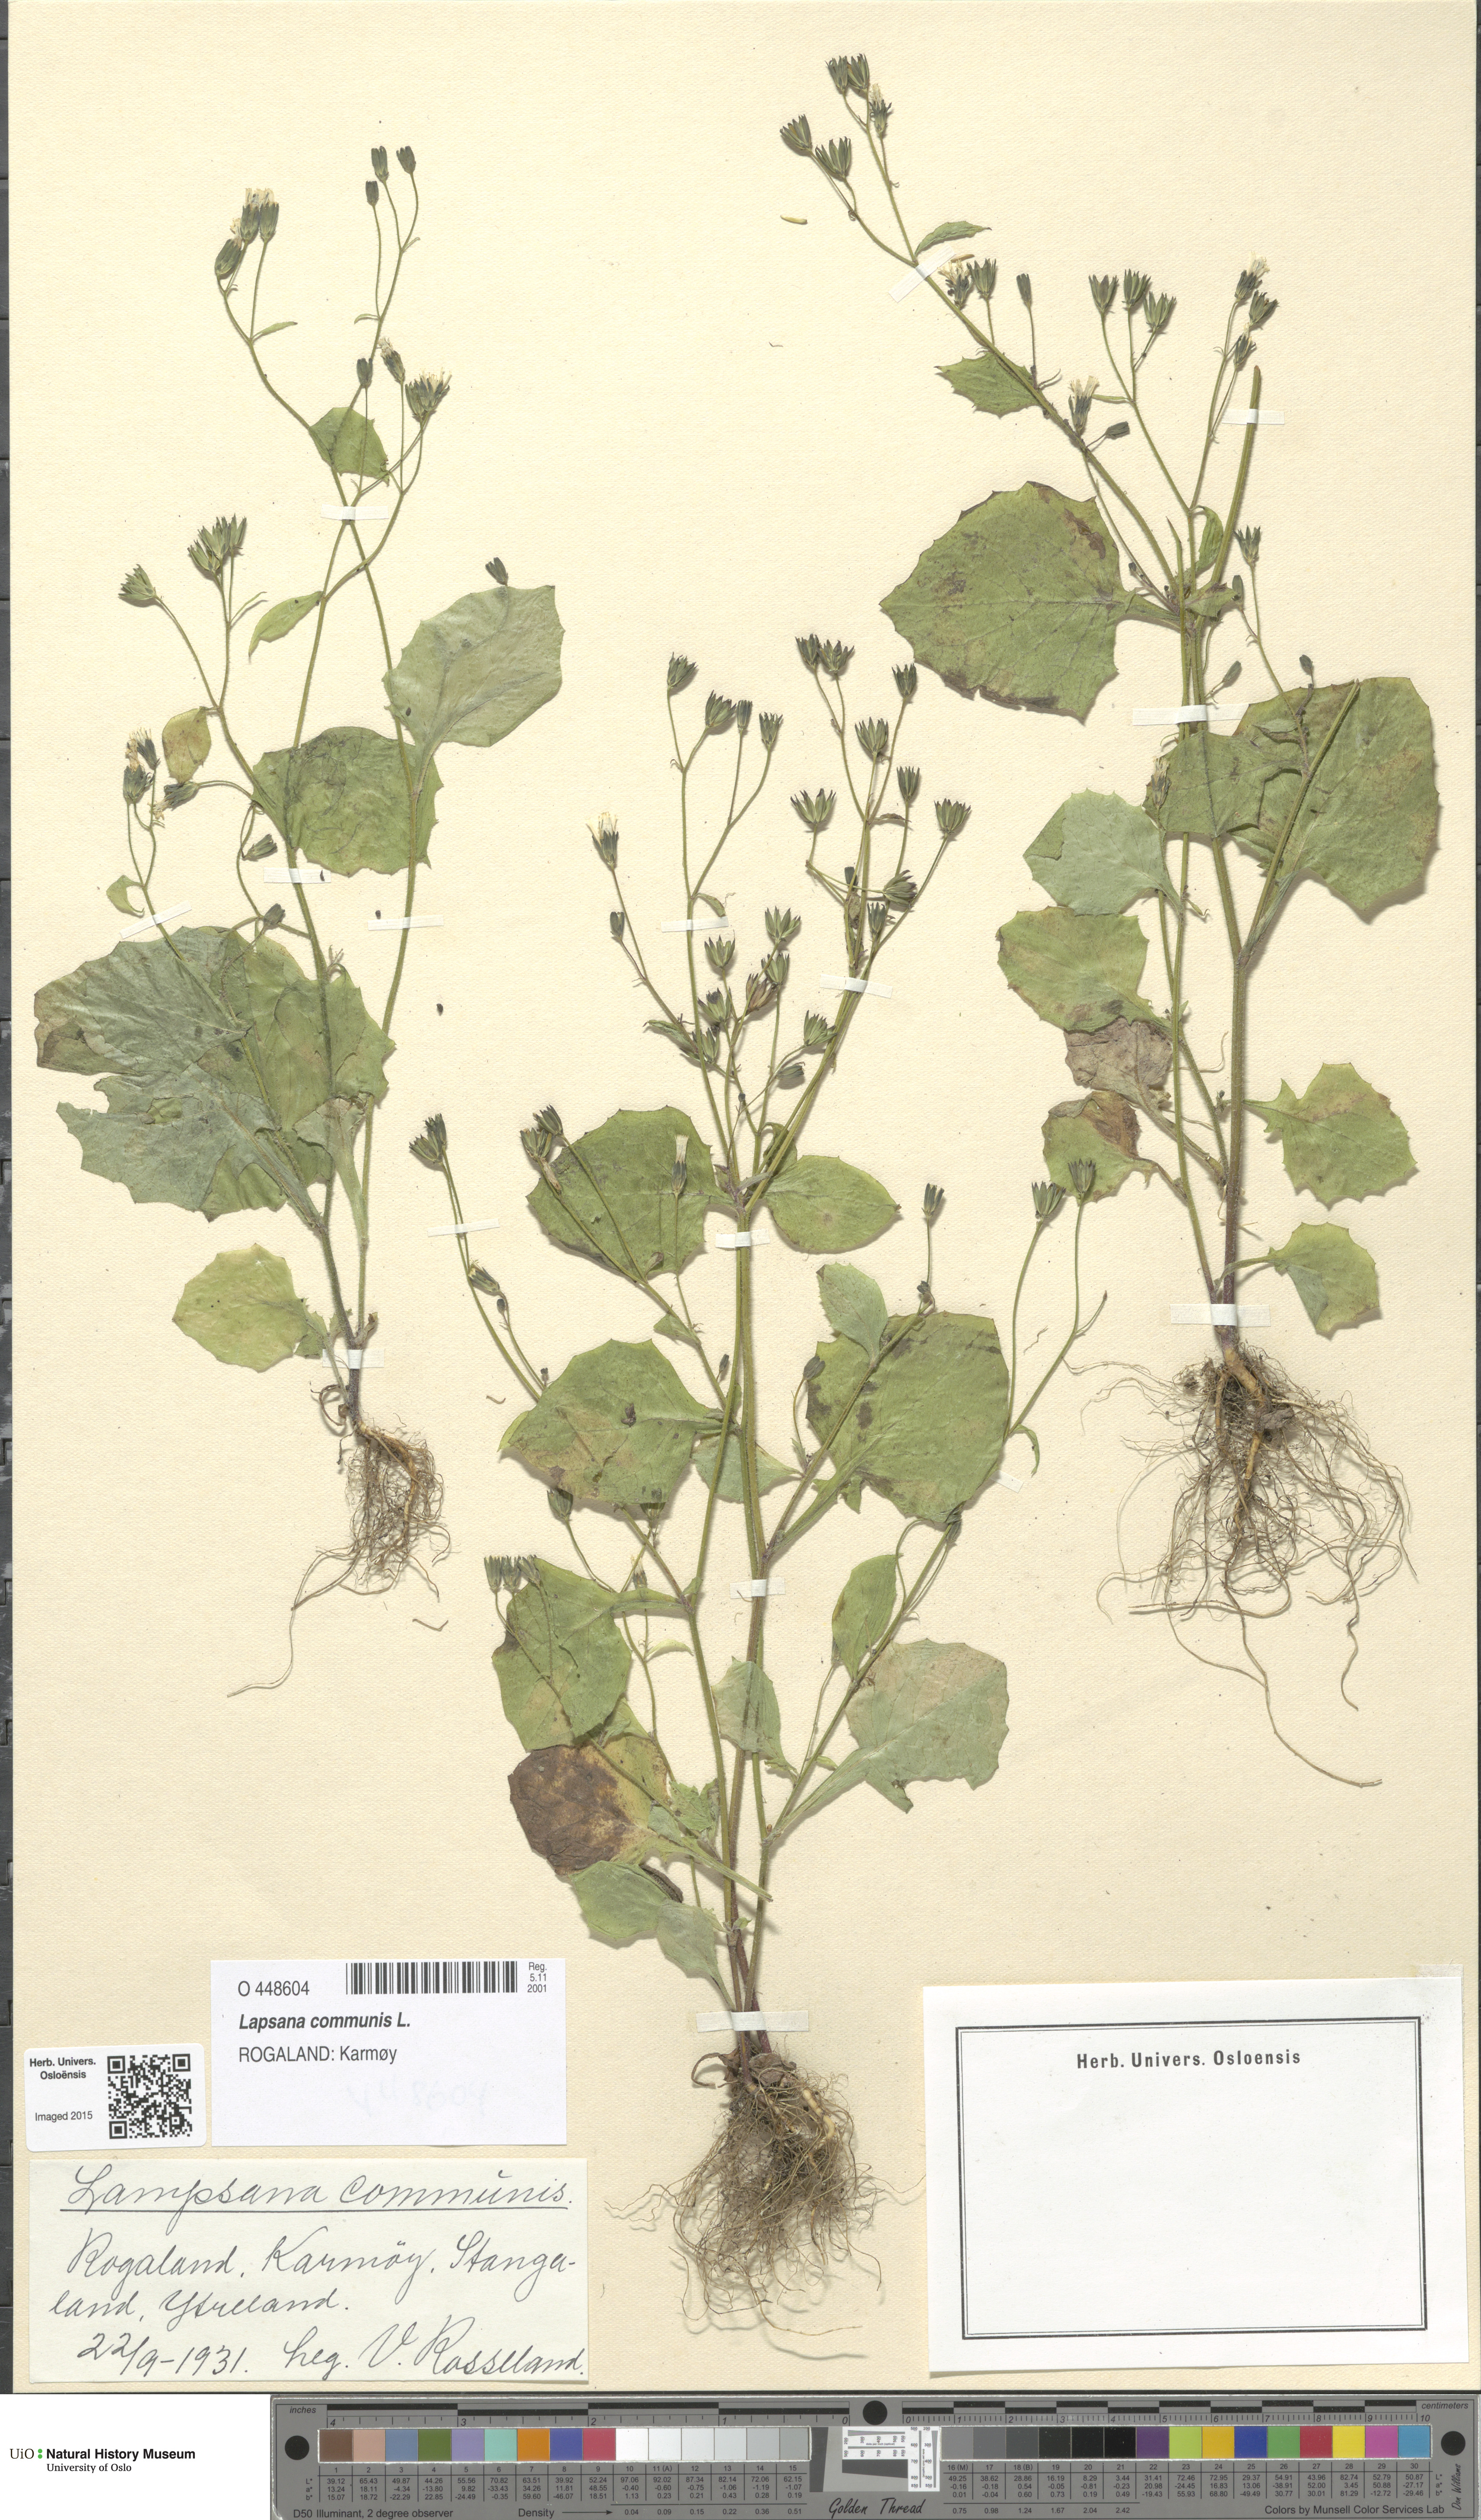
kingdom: Plantae
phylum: Tracheophyta
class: Magnoliopsida
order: Asterales
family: Asteraceae
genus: Lapsana
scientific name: Lapsana communis
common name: Nipplewort
